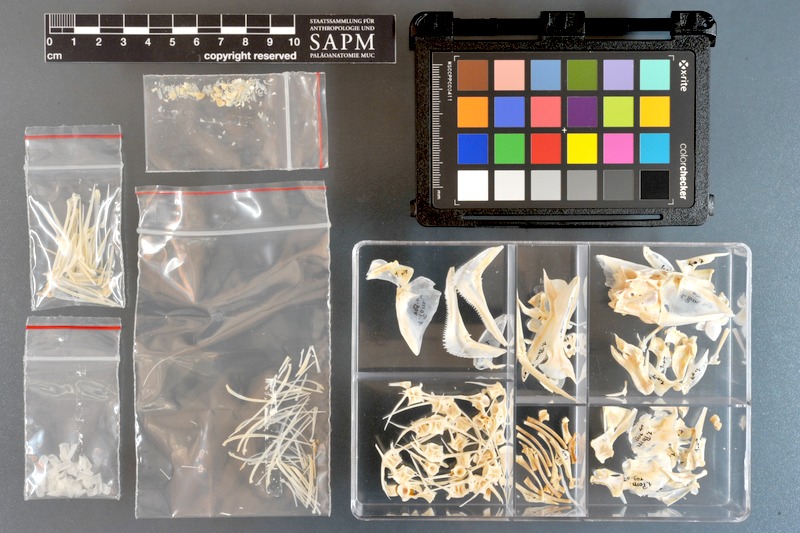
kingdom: Animalia
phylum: Chordata
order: Perciformes
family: Haemulidae
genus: Pomadasys
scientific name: Pomadasys rogerii
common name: Pigsnout grunt
